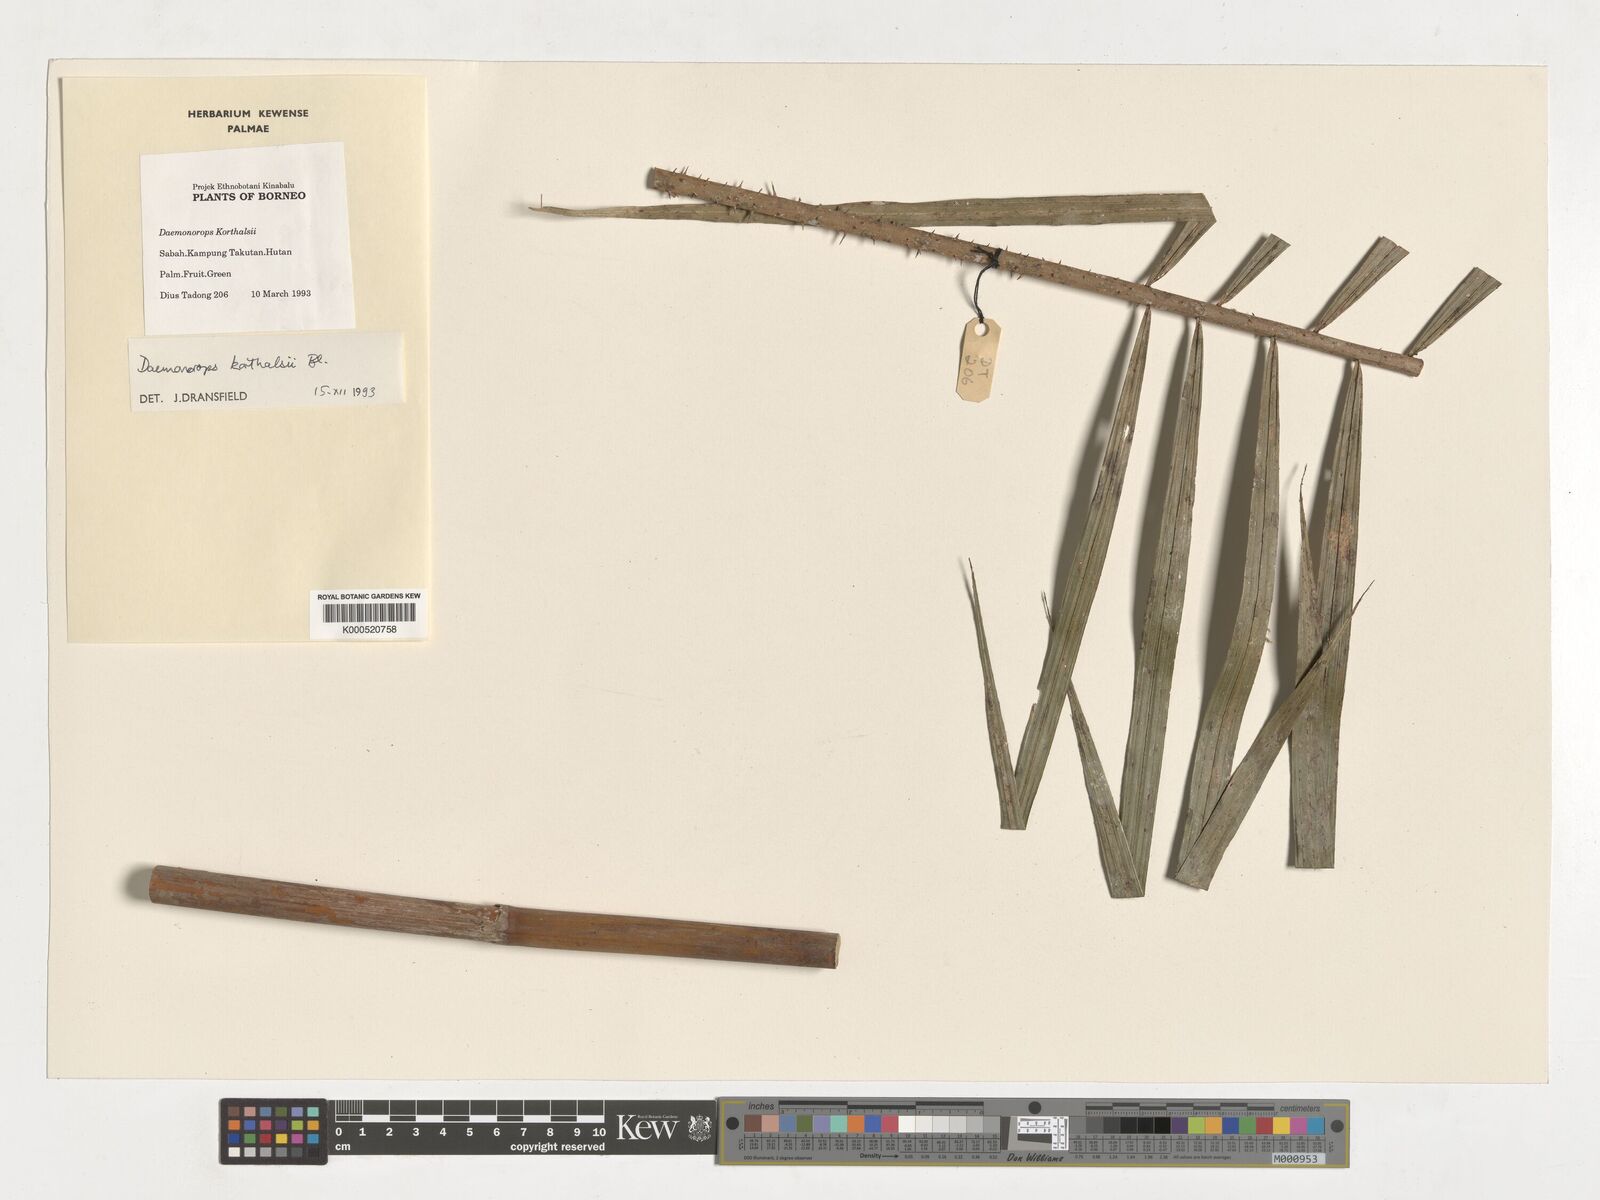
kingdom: Plantae
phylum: Tracheophyta
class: Liliopsida
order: Arecales
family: Arecaceae
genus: Calamus
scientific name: Calamus hirsutus
